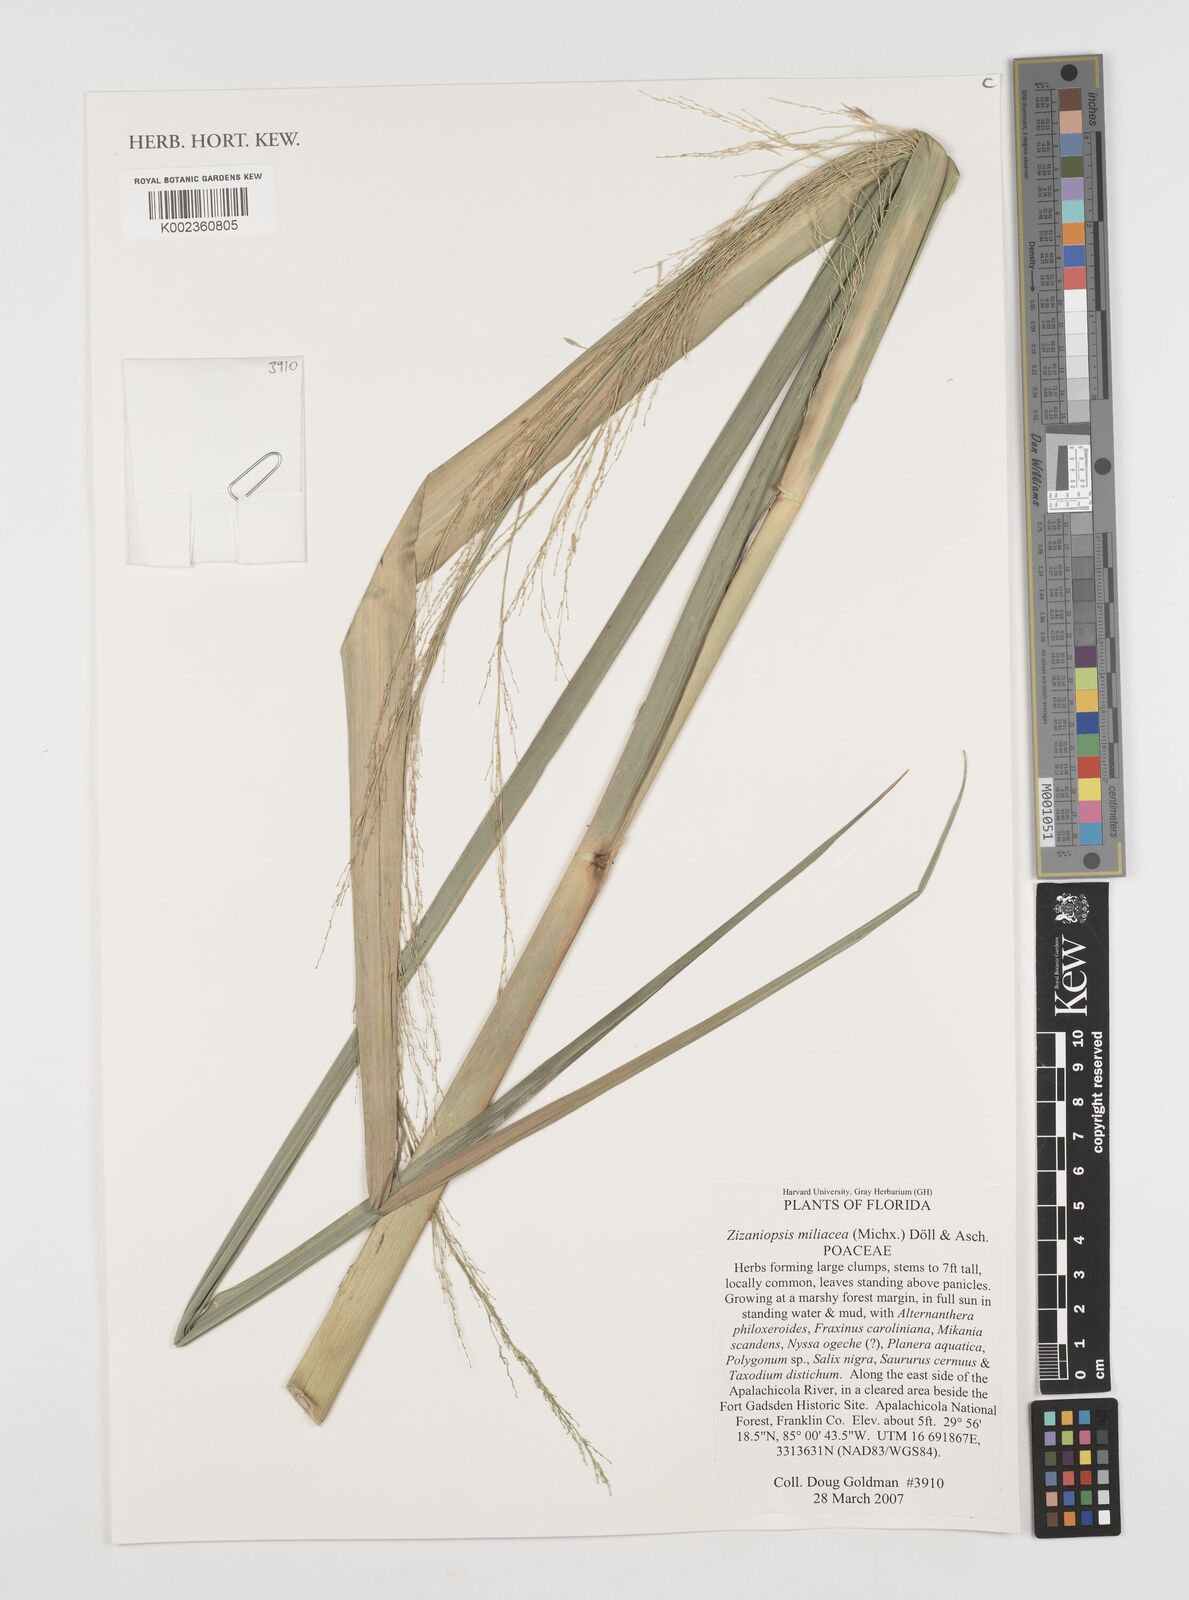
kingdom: Plantae
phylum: Tracheophyta
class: Liliopsida
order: Poales
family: Poaceae
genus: Zizaniopsis
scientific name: Zizaniopsis miliacea
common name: Giant-cutgrass
